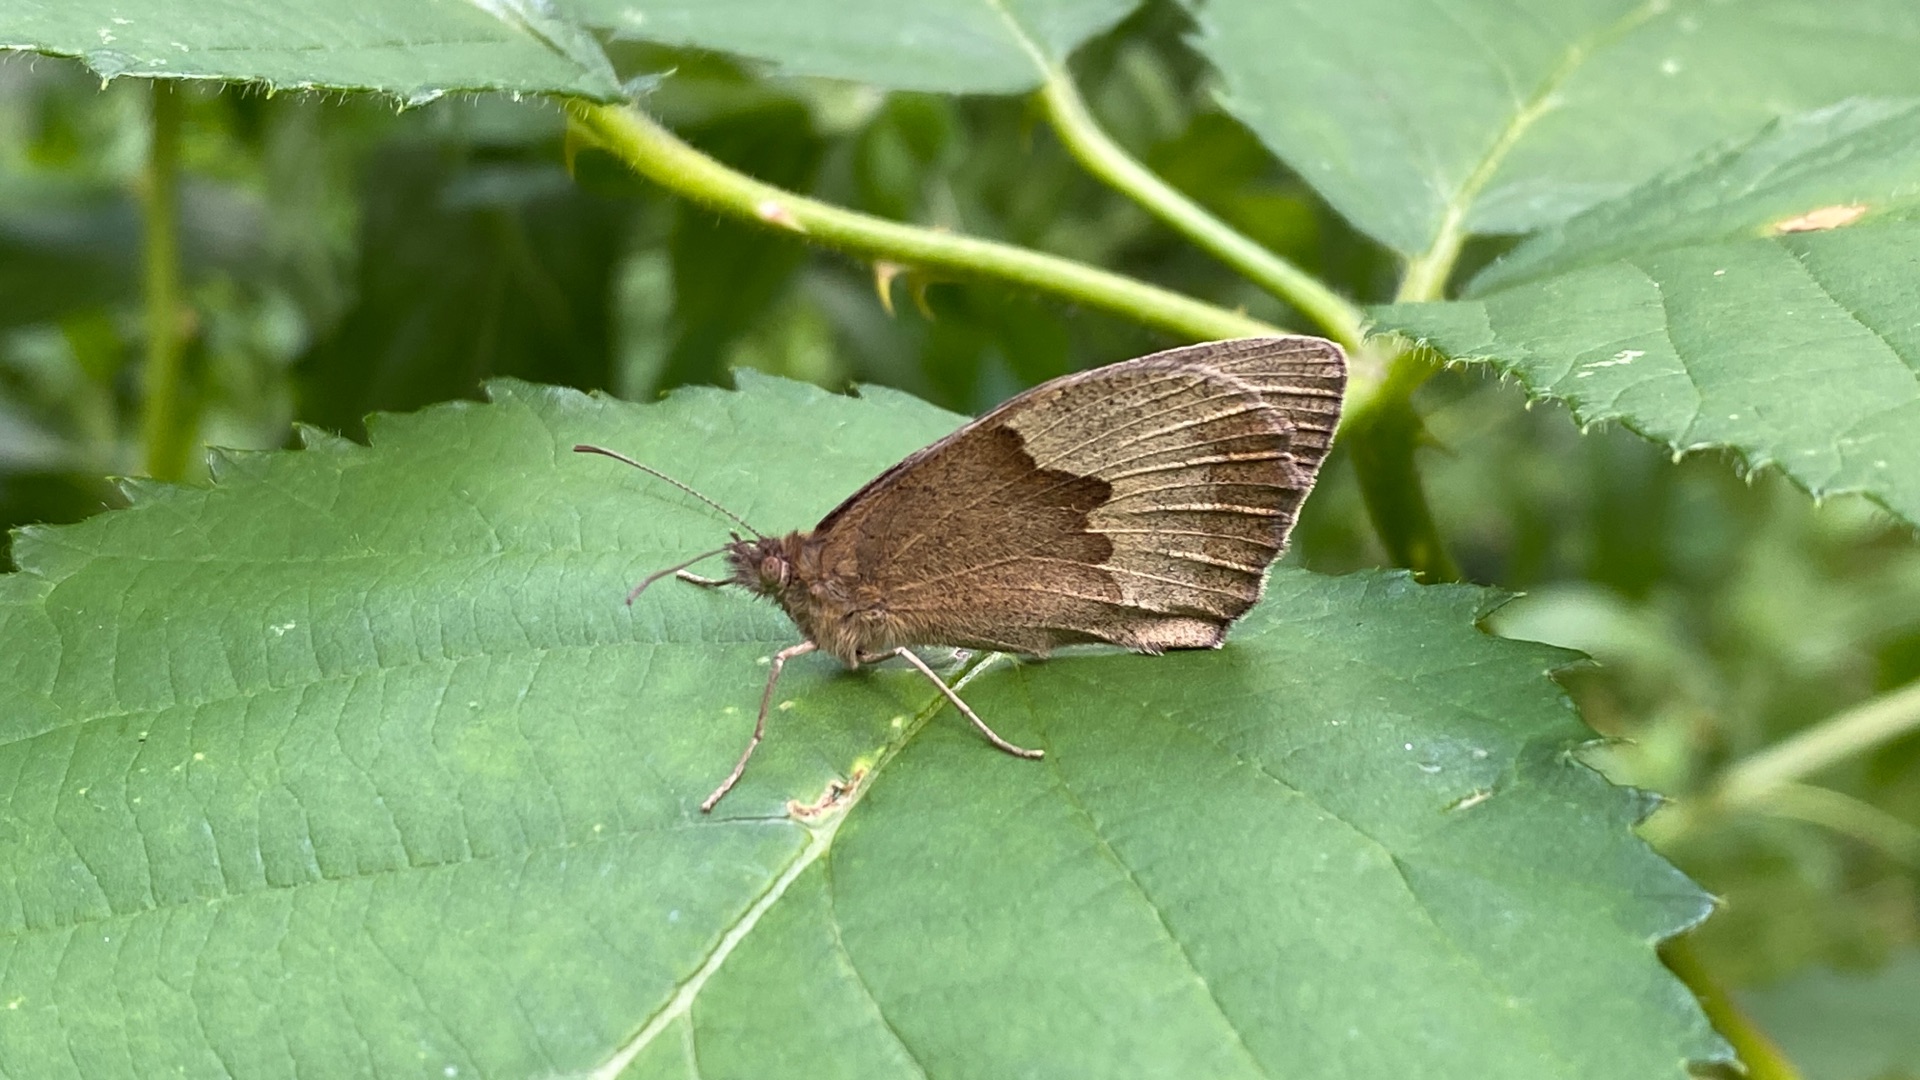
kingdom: Animalia
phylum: Arthropoda
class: Insecta
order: Lepidoptera
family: Nymphalidae
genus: Maniola
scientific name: Maniola jurtina
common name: Græsrandøje
